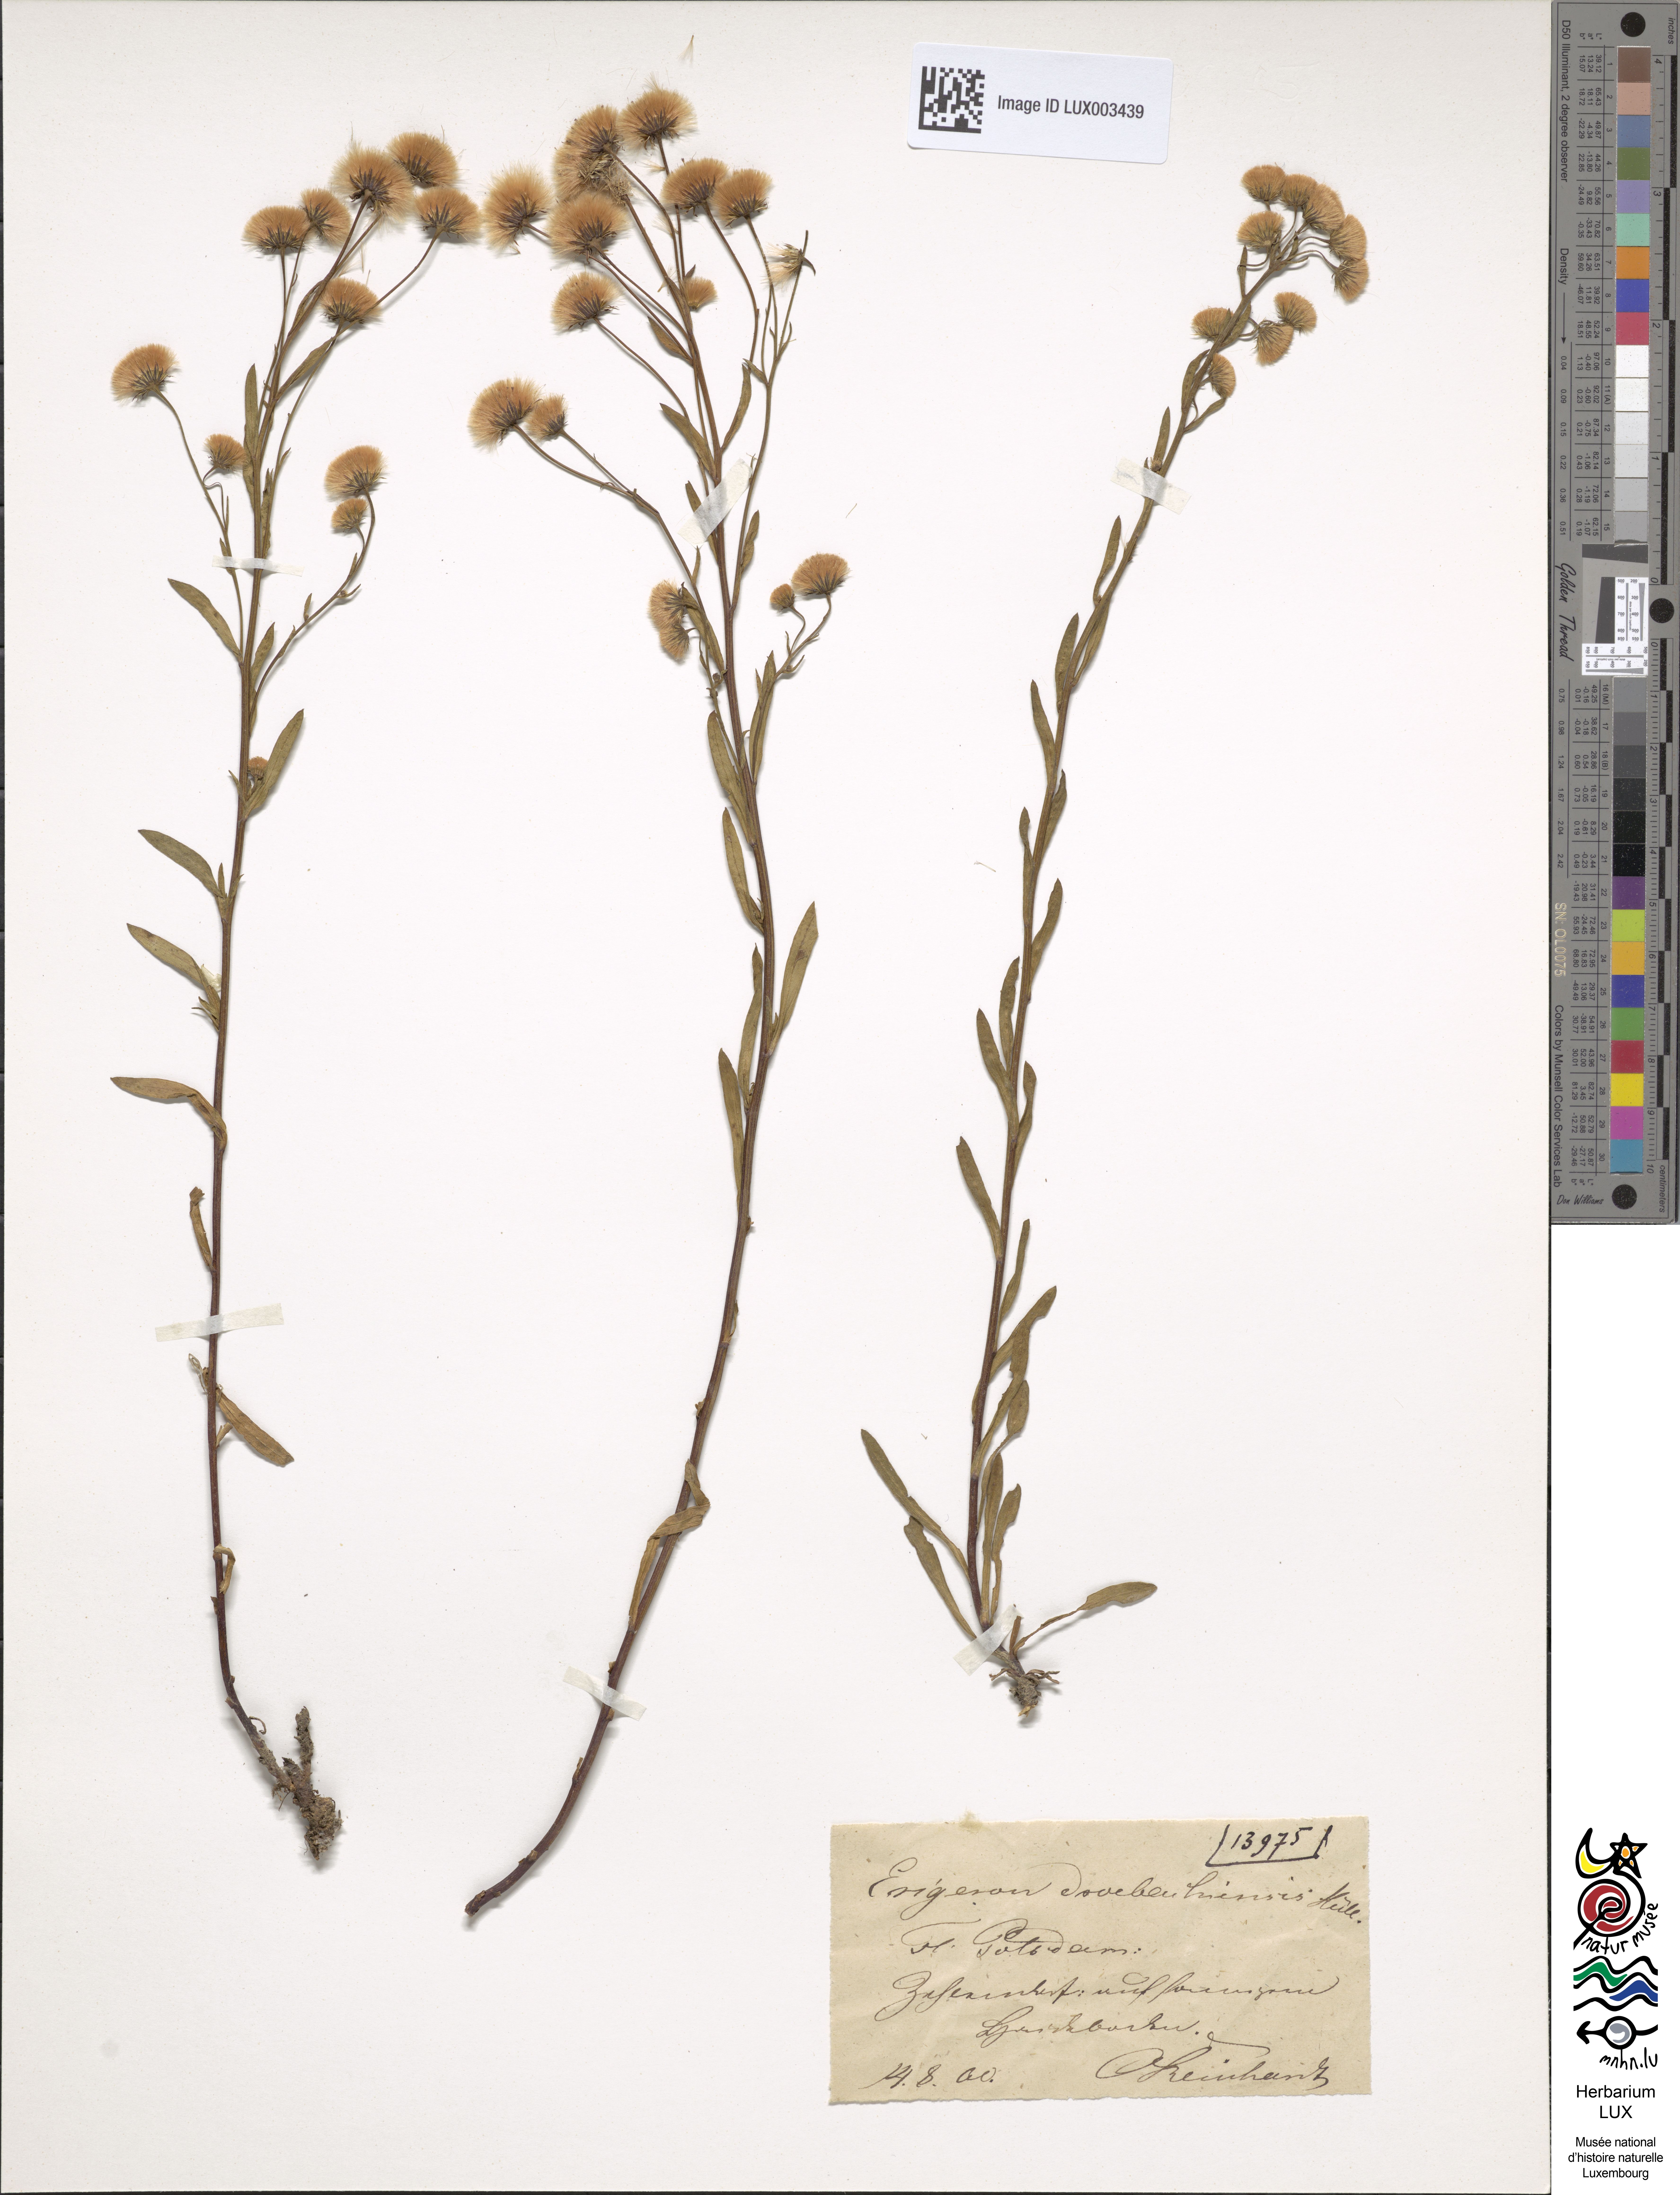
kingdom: Plantae
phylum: Tracheophyta
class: Magnoliopsida
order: Asterales
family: Asteraceae
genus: Erigeron
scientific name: Erigeron droebachiensis
